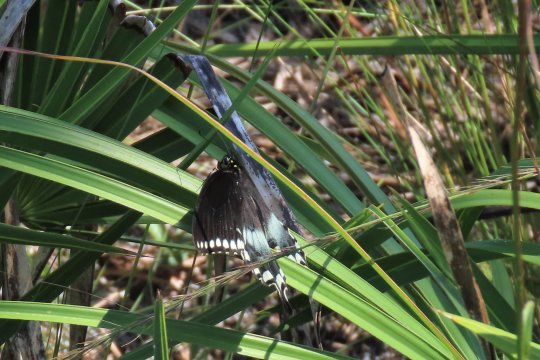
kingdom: Animalia
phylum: Arthropoda
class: Insecta
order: Lepidoptera
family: Papilionidae
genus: Pterourus
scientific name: Pterourus troilus
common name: Spicebush Swallowtail
